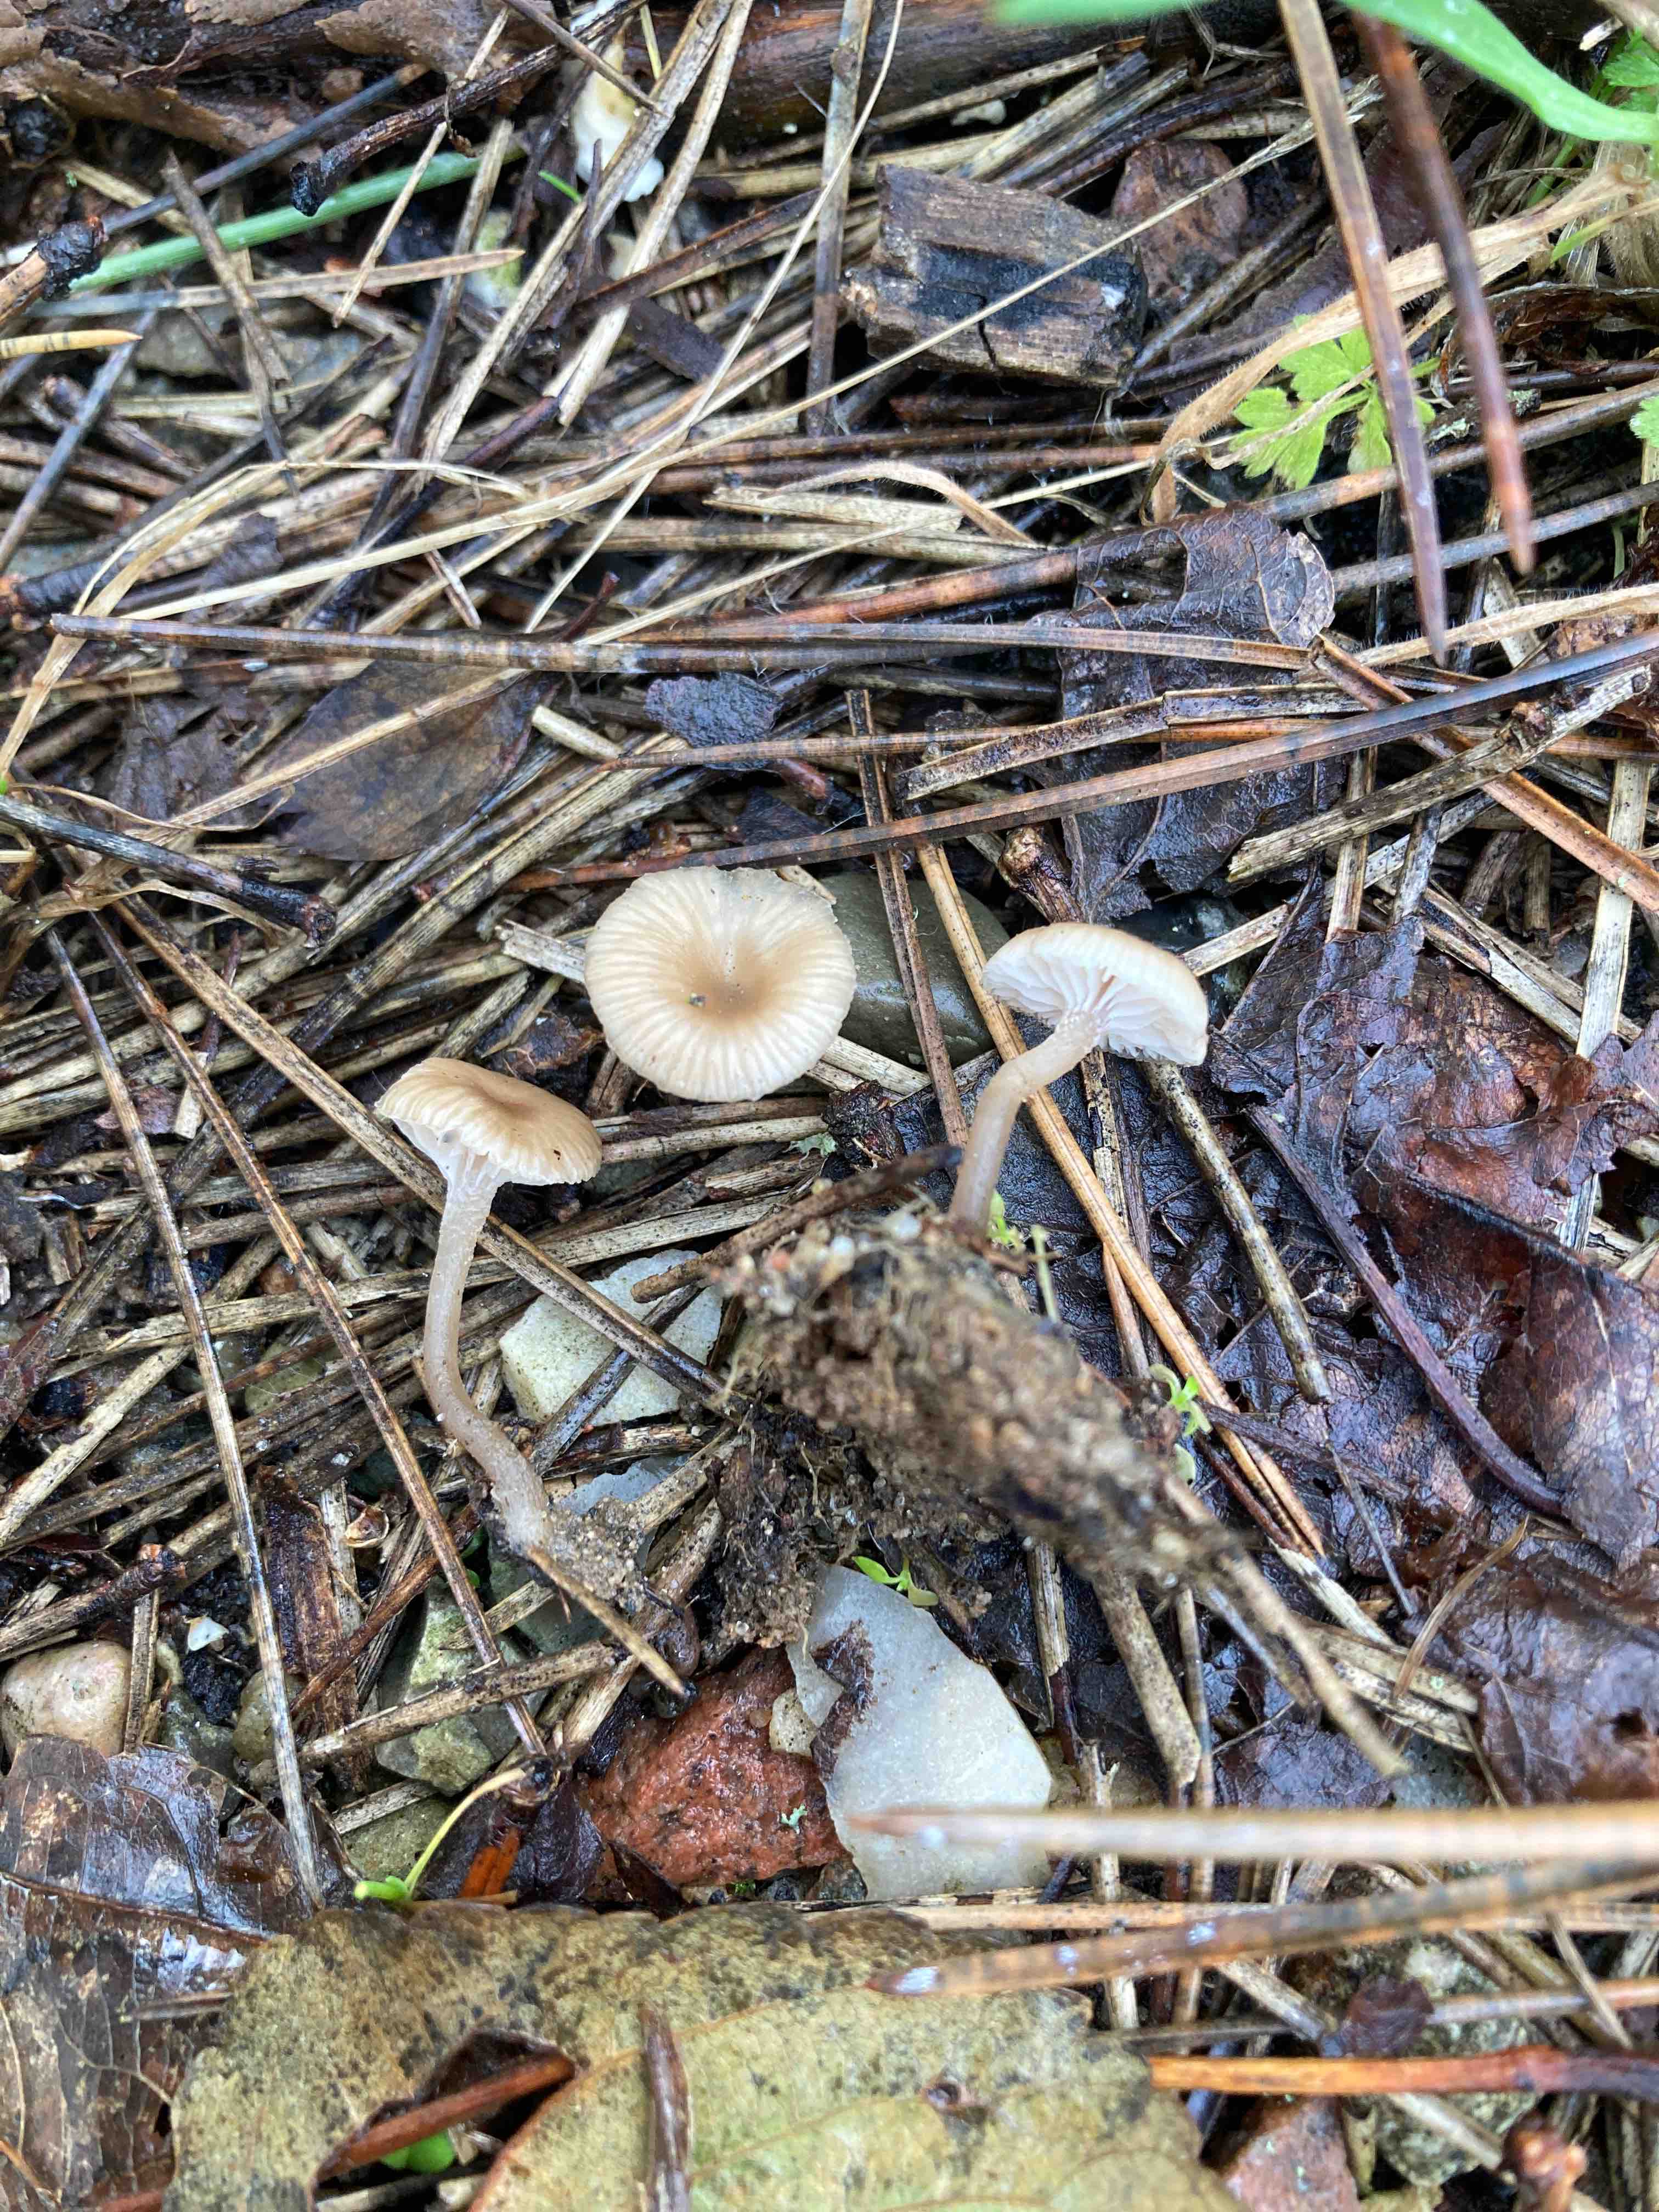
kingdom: Fungi
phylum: Basidiomycota
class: Agaricomycetes
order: Agaricales
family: Tricholomataceae
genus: Gamundia
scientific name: Gamundia striatula
